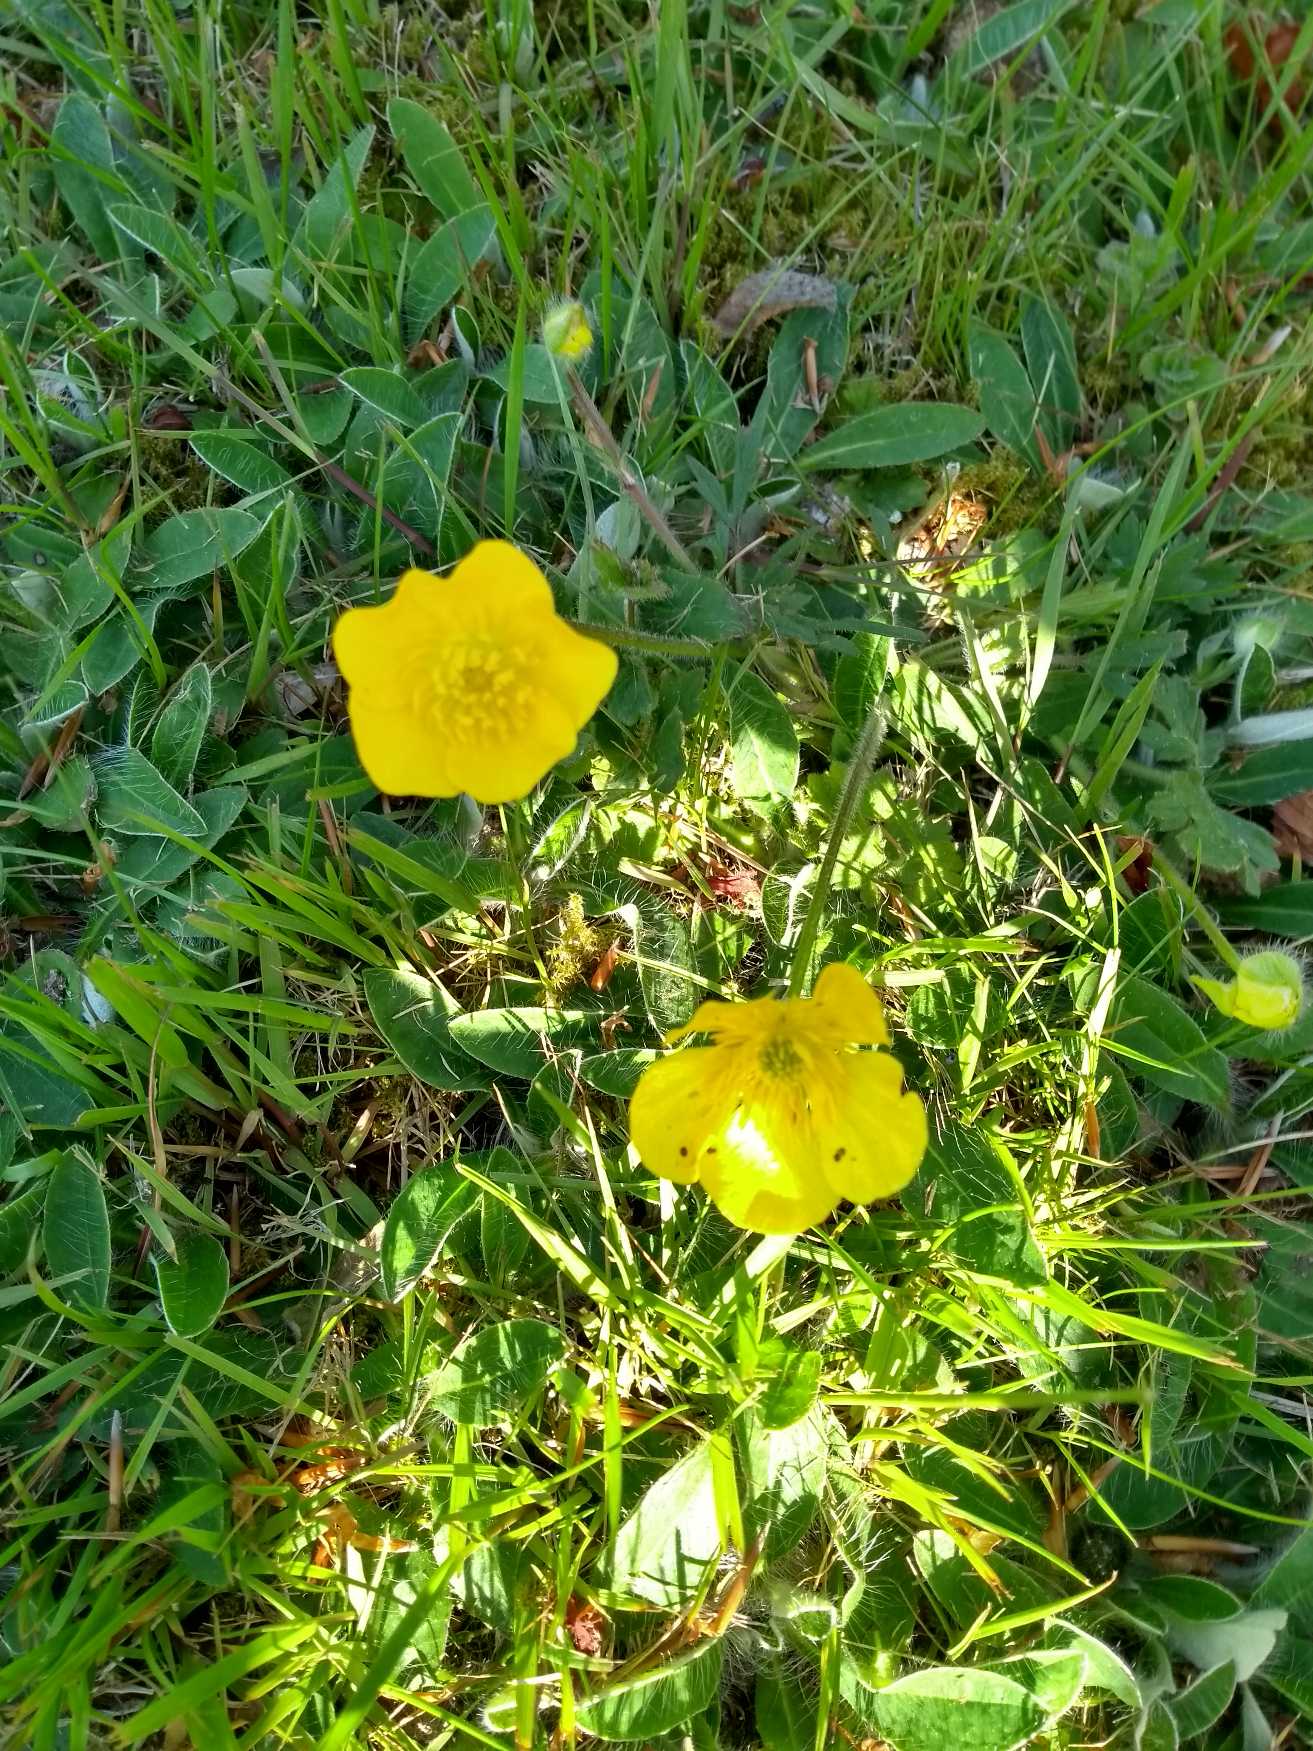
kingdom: Plantae
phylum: Tracheophyta
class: Magnoliopsida
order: Ranunculales
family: Ranunculaceae
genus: Ranunculus
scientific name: Ranunculus bulbosus
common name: Knold-ranunkel
